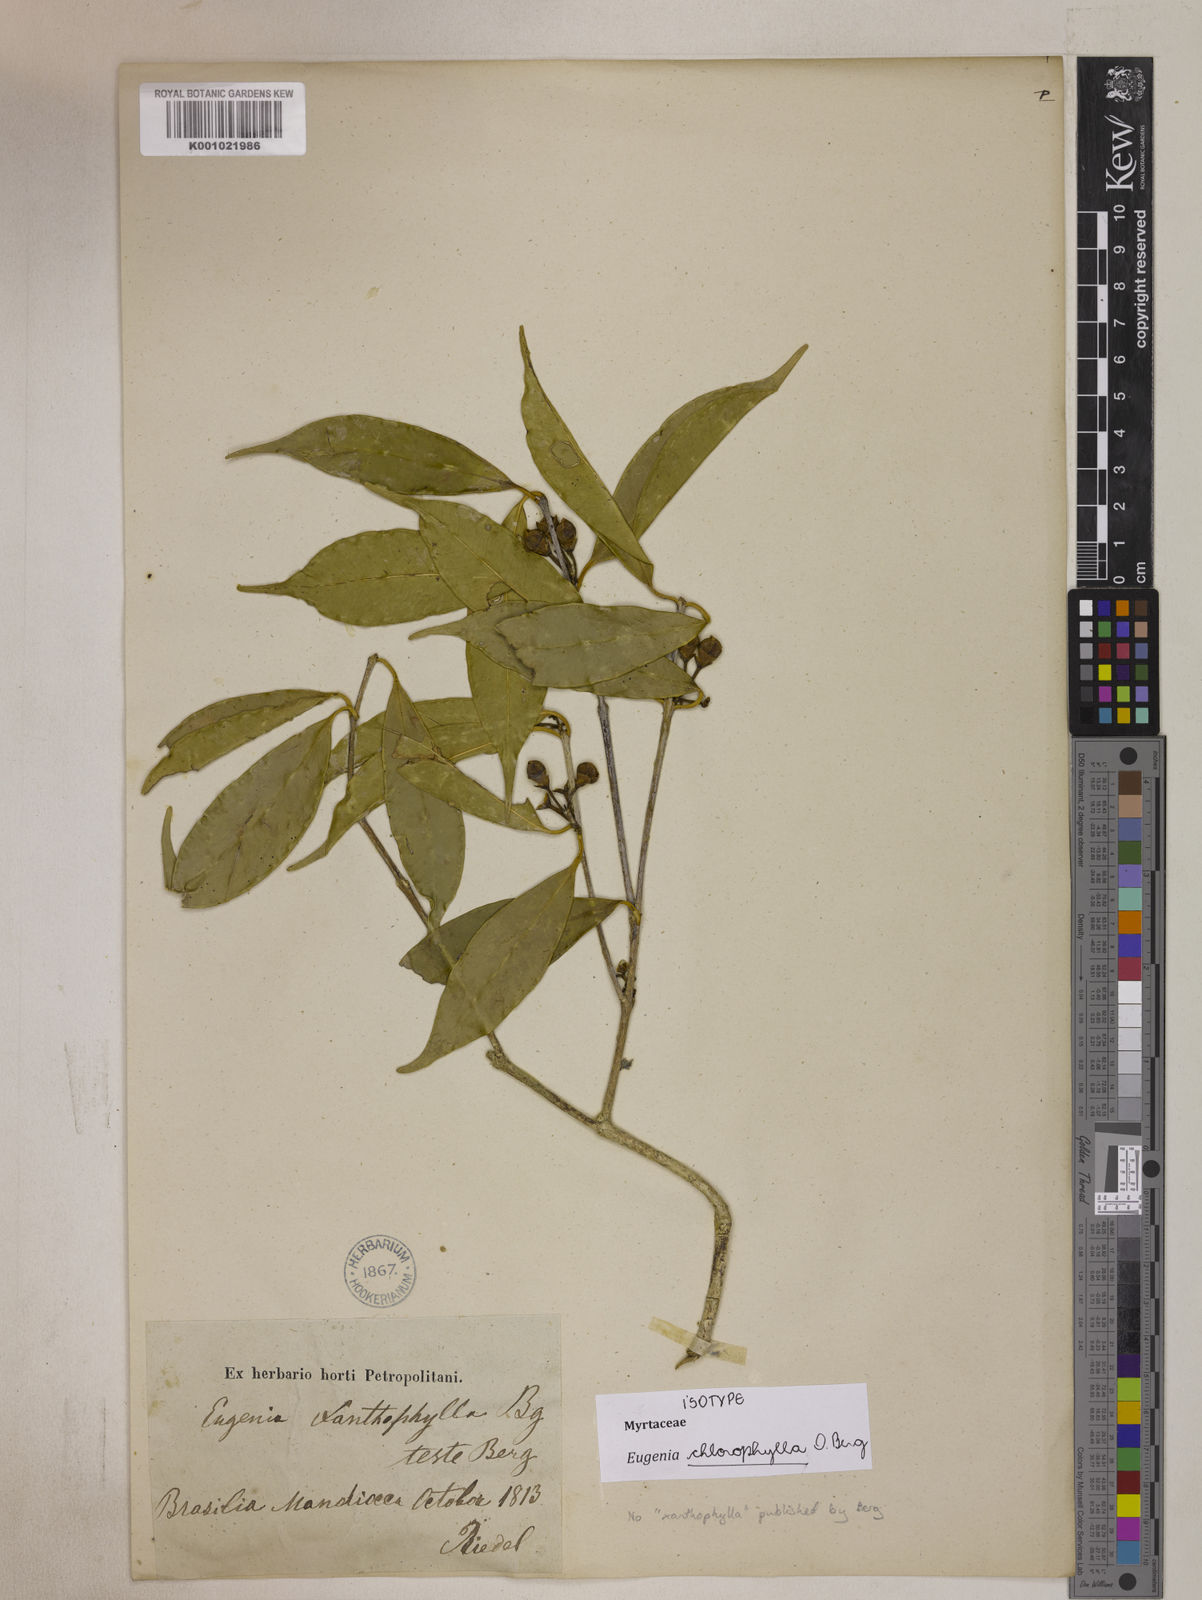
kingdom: Plantae
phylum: Tracheophyta
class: Magnoliopsida
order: Myrtales
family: Myrtaceae
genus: Eugenia
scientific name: Eugenia chlorophylla
